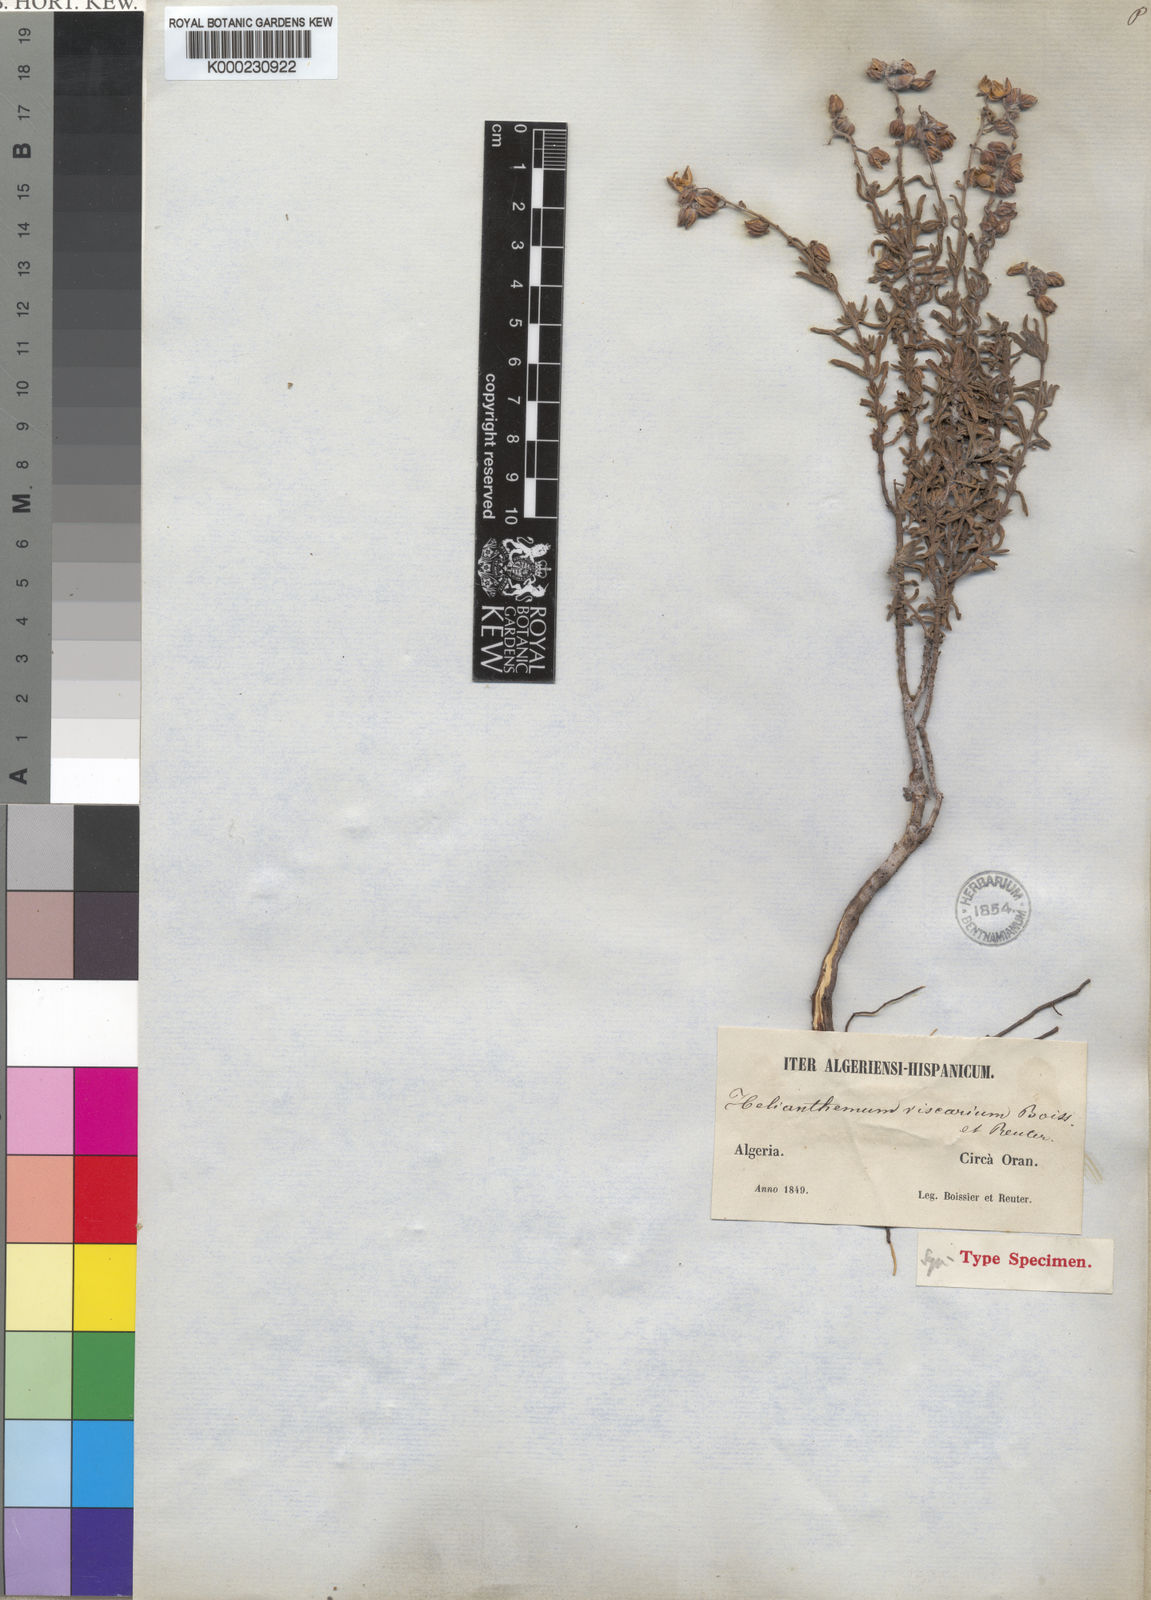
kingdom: Plantae
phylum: Tracheophyta
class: Magnoliopsida
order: Malvales
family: Cistaceae
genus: Helianthemum
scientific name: Helianthemum viscarium
